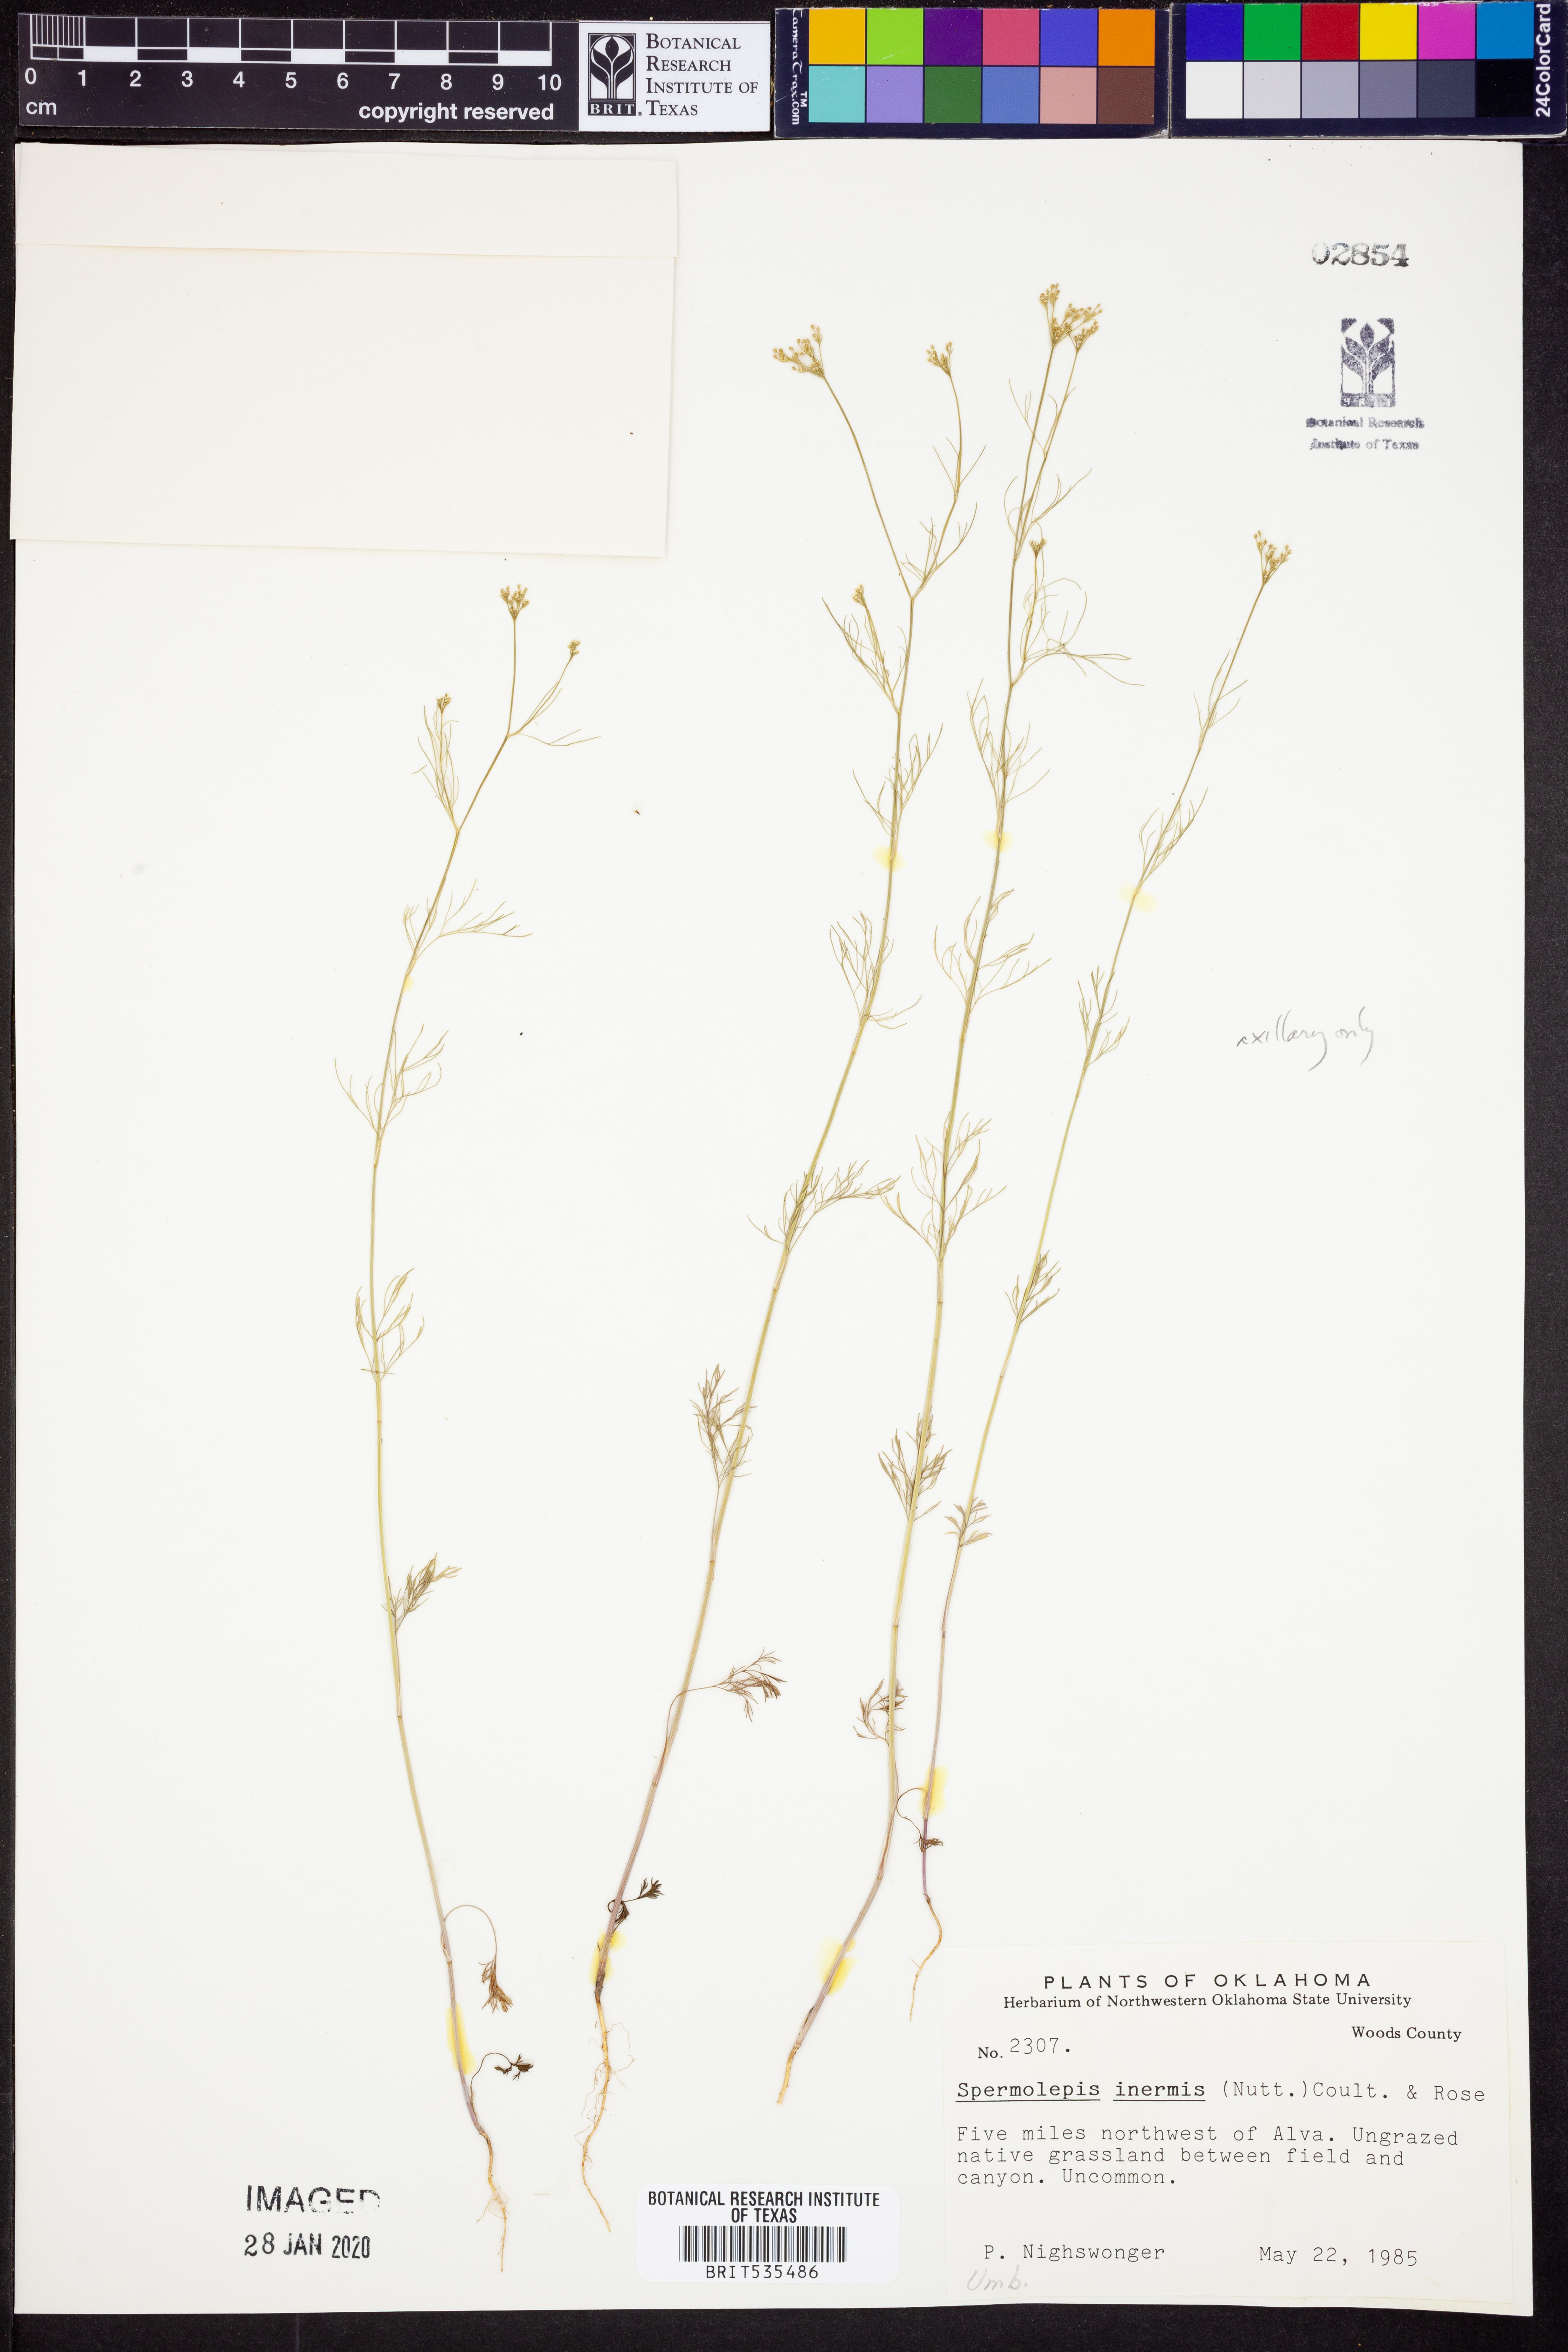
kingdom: Plantae
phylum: Tracheophyta
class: Magnoliopsida
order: Apiales
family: Apiaceae
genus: Spermolepis
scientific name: Spermolepis inermis
